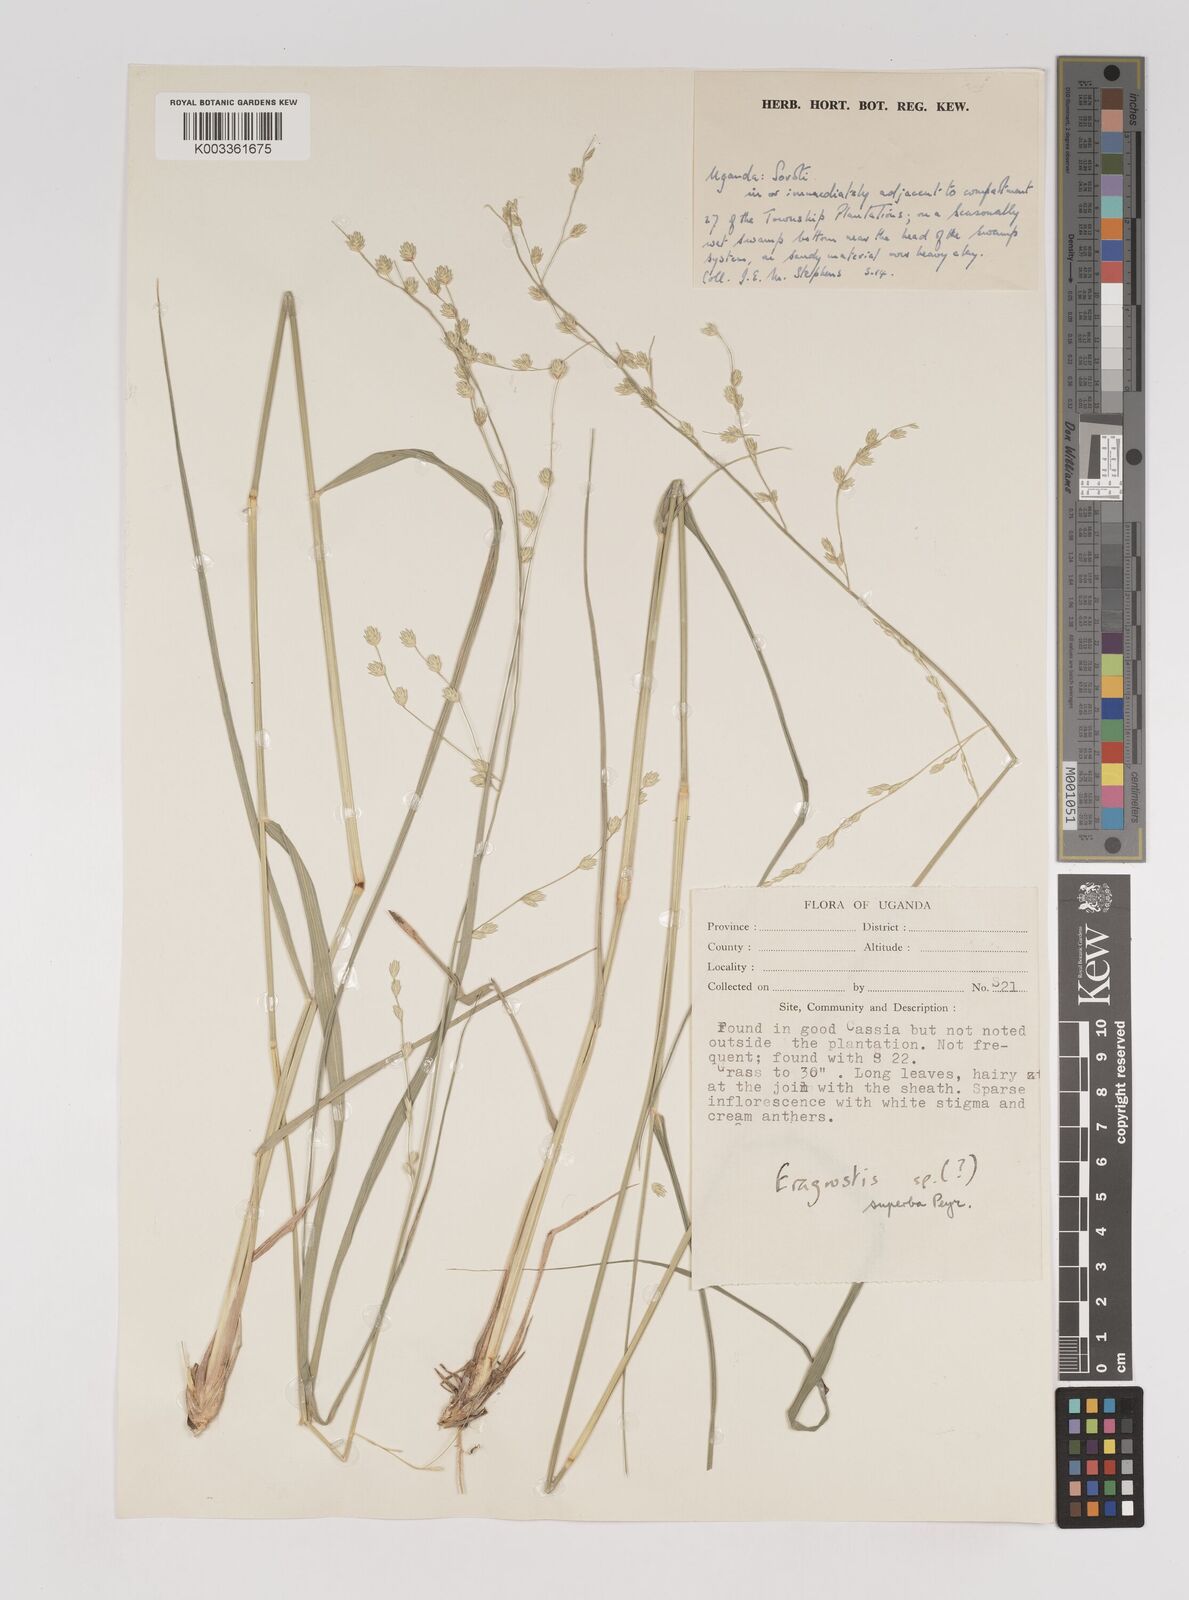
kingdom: Plantae
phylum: Tracheophyta
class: Liliopsida
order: Poales
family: Poaceae
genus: Eragrostis
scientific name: Eragrostis superba
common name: Wilman lovegrass
